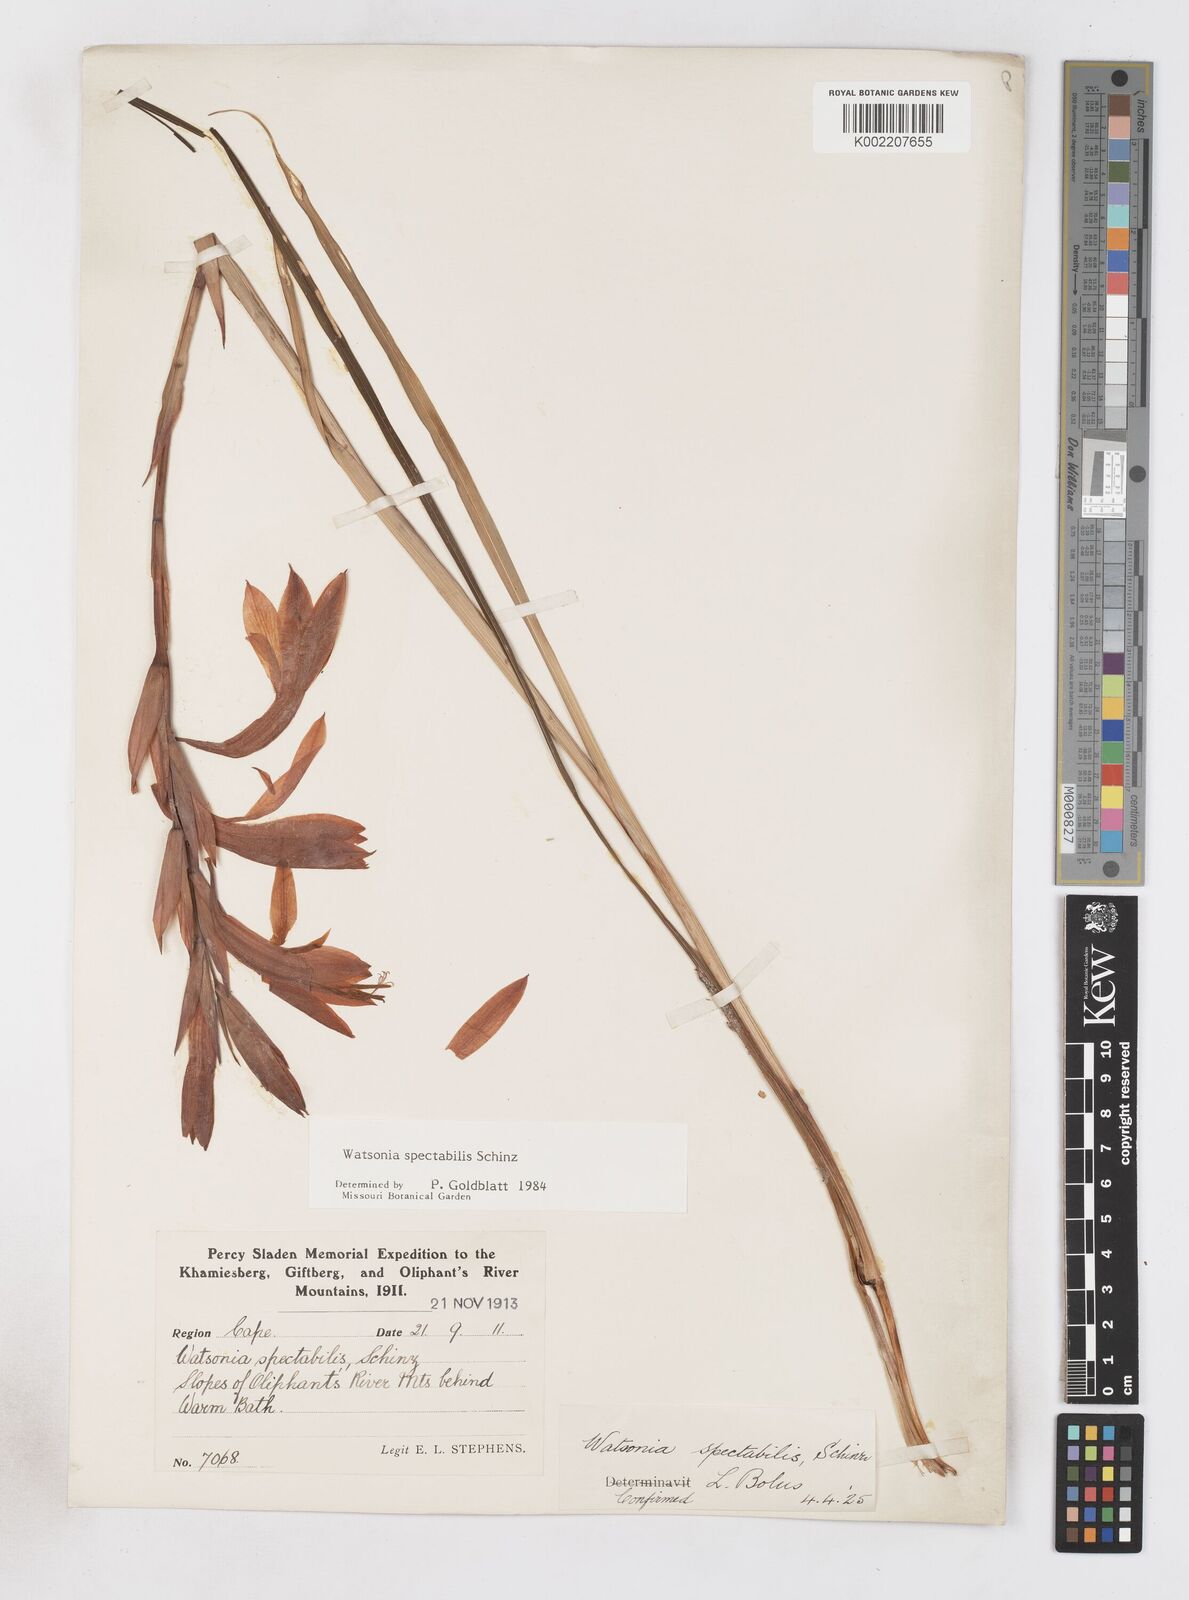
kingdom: Plantae
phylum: Tracheophyta
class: Liliopsida
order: Asparagales
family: Iridaceae
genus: Watsonia
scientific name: Watsonia spectabilis
